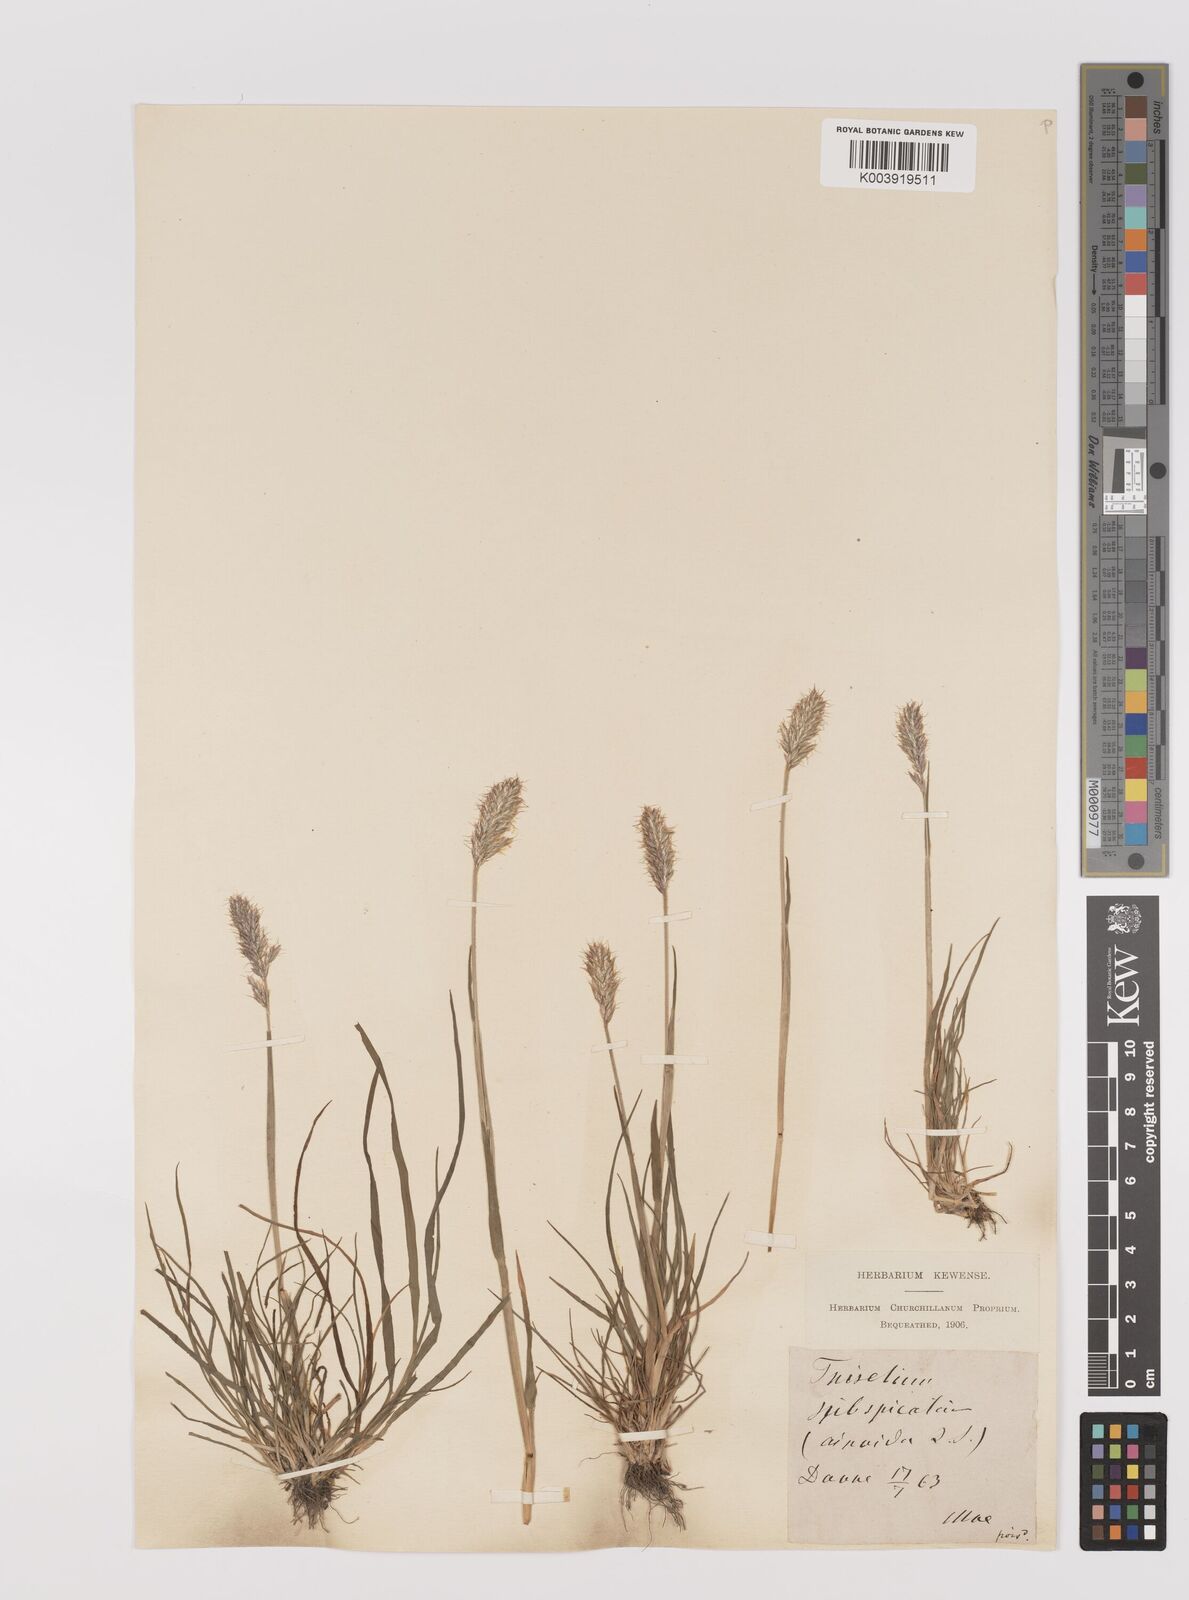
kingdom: Plantae
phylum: Tracheophyta
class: Liliopsida
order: Poales
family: Poaceae
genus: Koeleria
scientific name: Koeleria spicata
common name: Mountain trisetum
